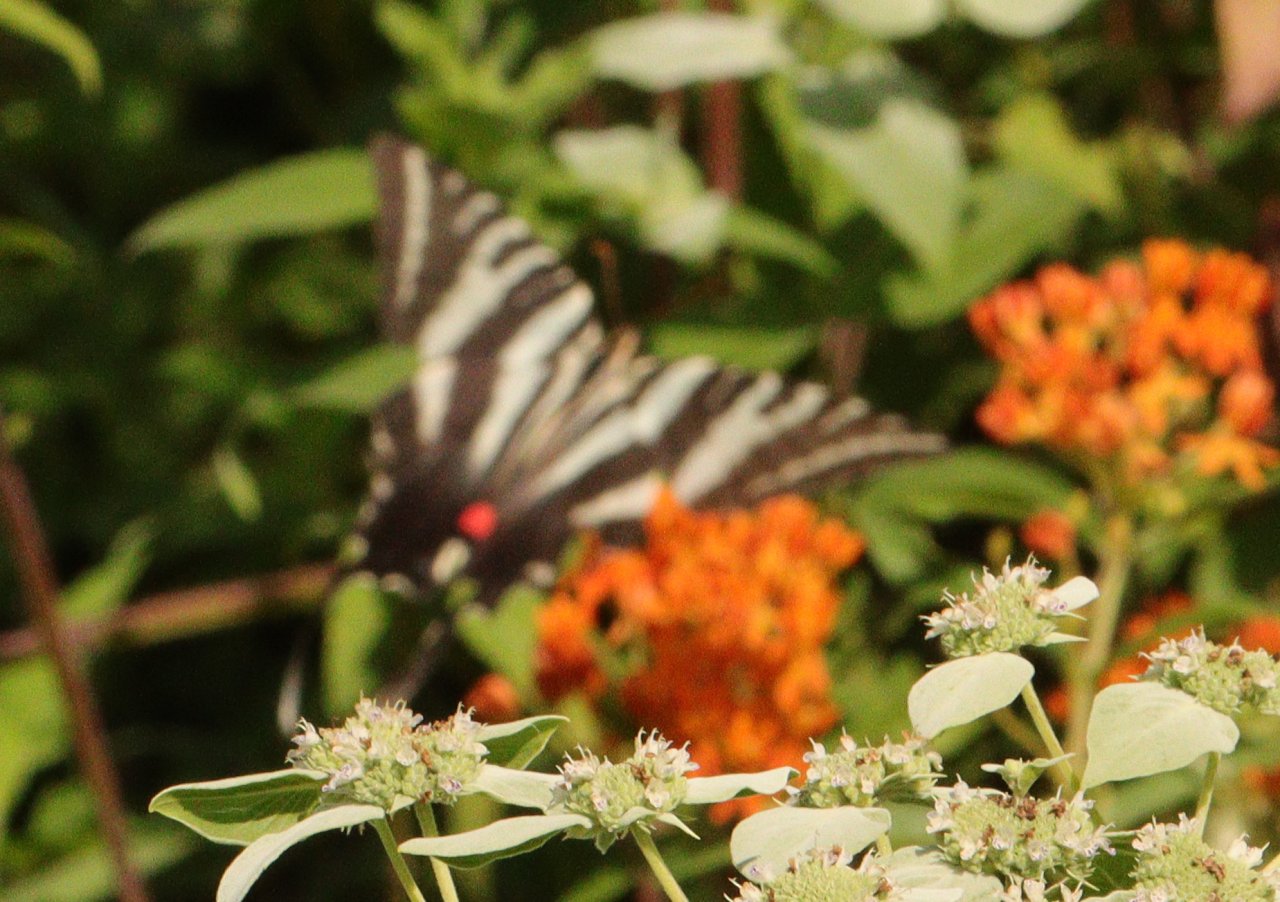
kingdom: Animalia
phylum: Arthropoda
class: Insecta
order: Lepidoptera
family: Papilionidae
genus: Protographium
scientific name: Protographium marcellus
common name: Zebra Swallowtail
